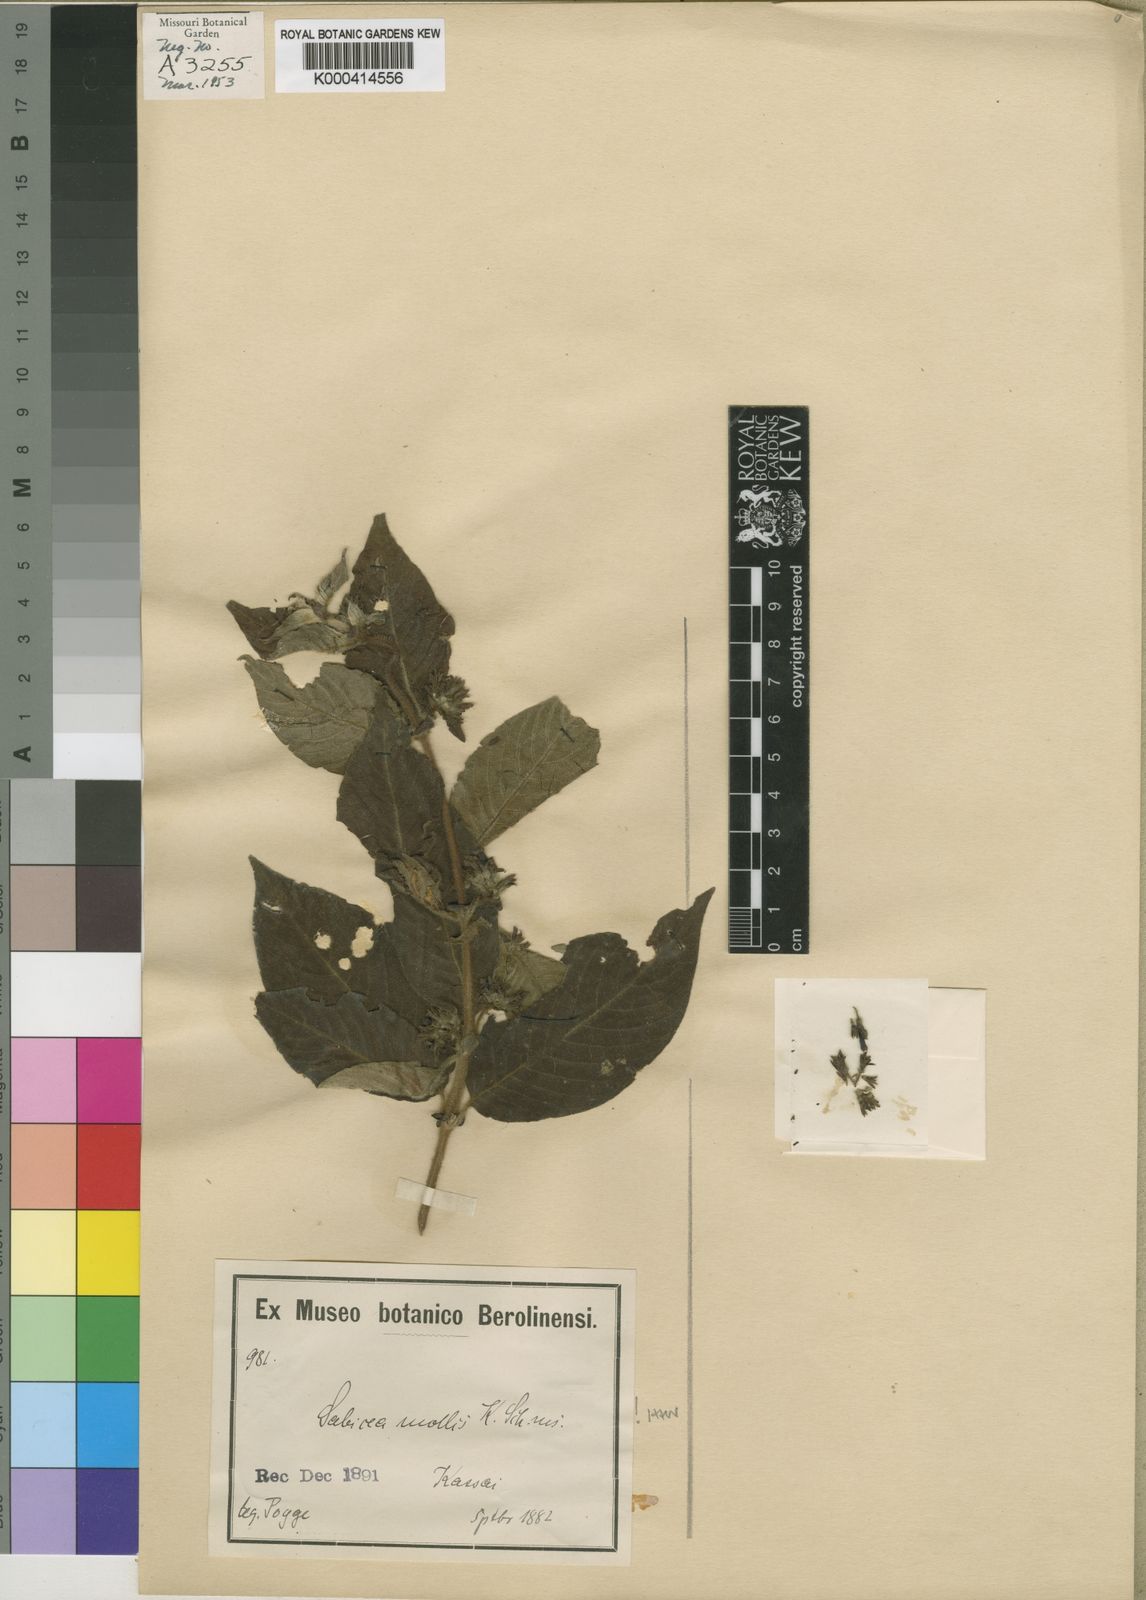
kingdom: Plantae
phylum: Tracheophyta
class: Magnoliopsida
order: Gentianales
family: Rubiaceae
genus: Sabicea
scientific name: Sabicea
